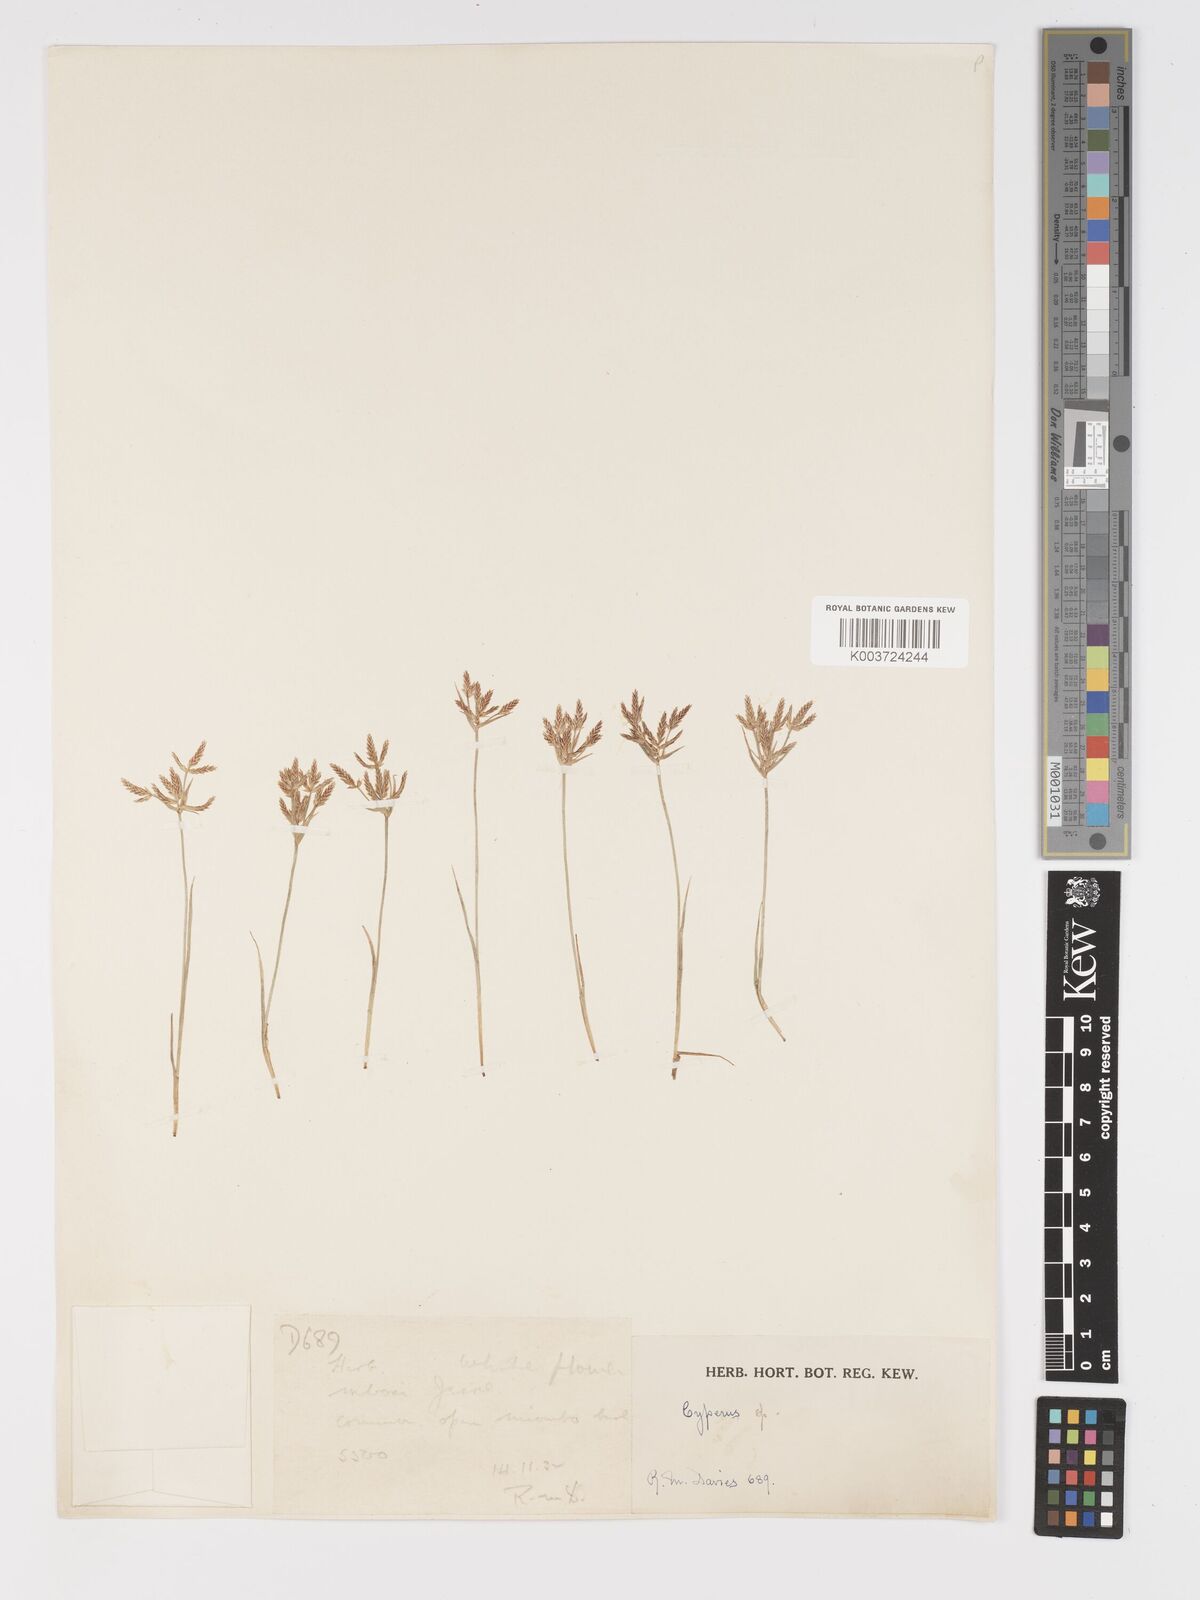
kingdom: Plantae
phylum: Tracheophyta
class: Liliopsida
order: Poales
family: Cyperaceae
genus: Cyperus
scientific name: Cyperus
